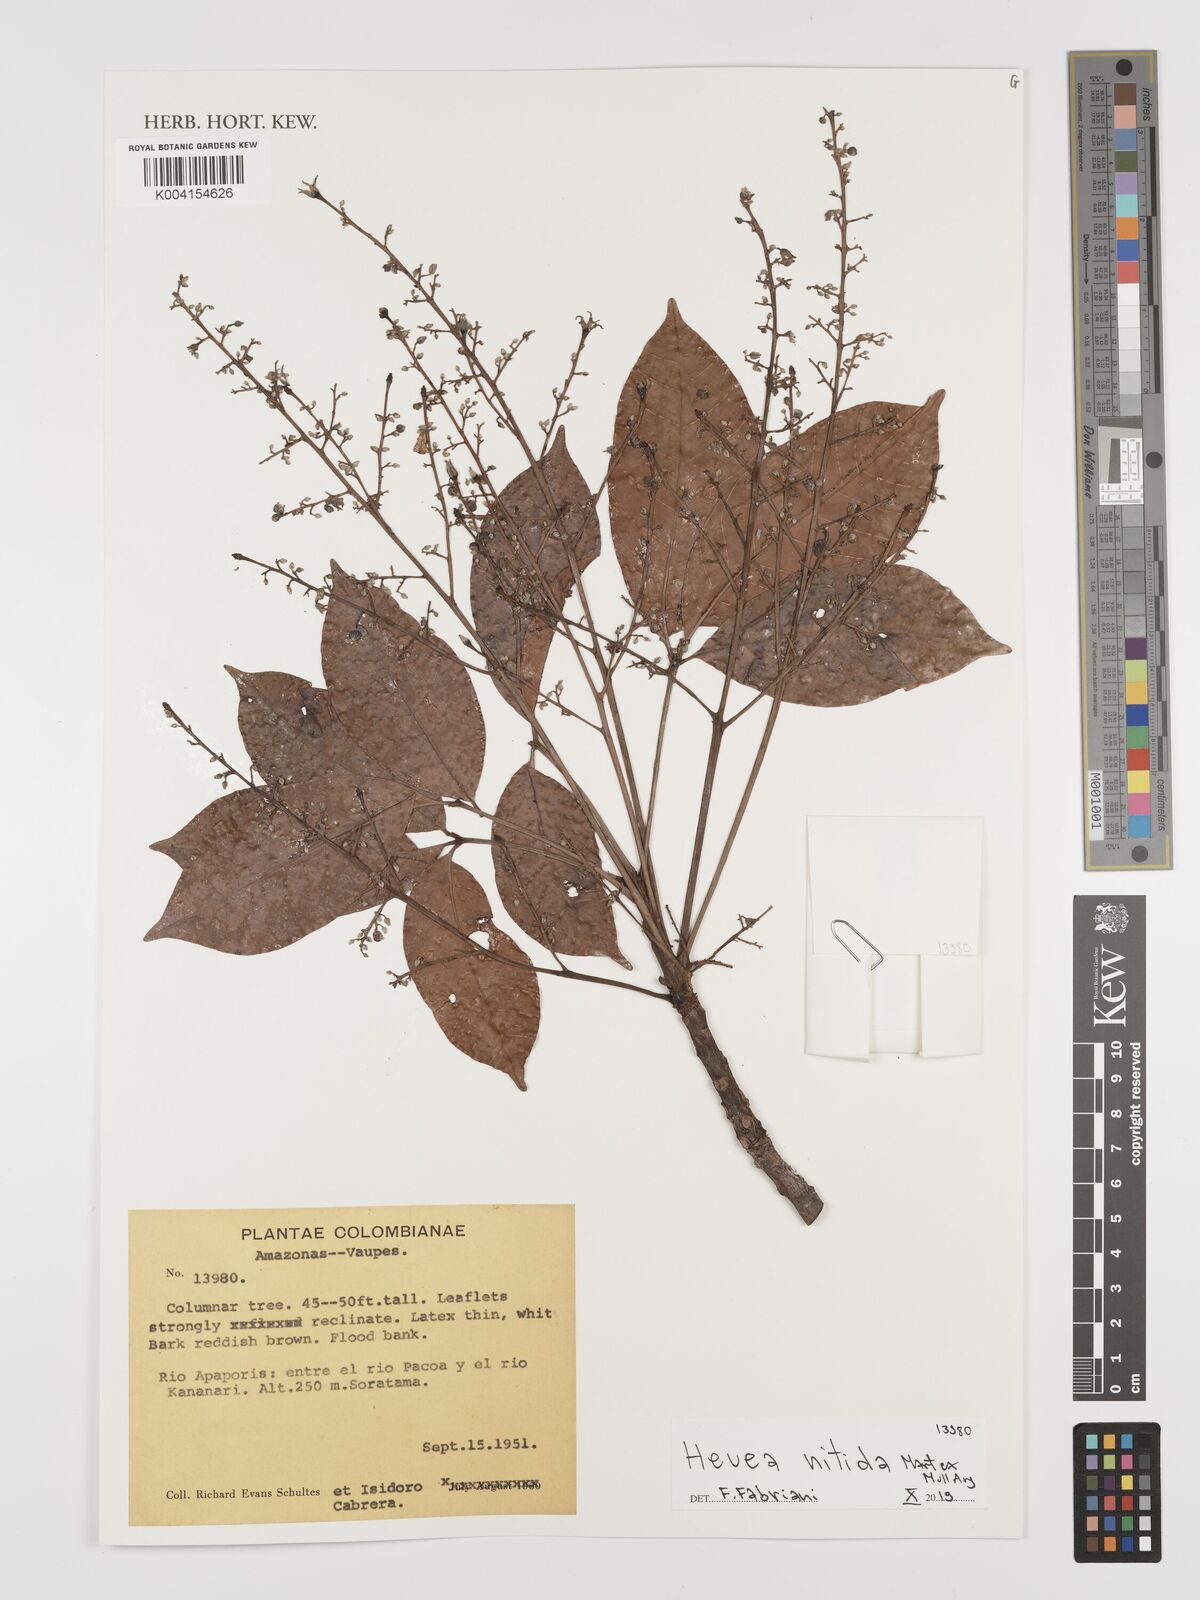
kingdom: Plantae
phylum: Tracheophyta
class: Magnoliopsida
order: Malpighiales
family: Euphorbiaceae
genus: Hevea
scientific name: Hevea nitida
